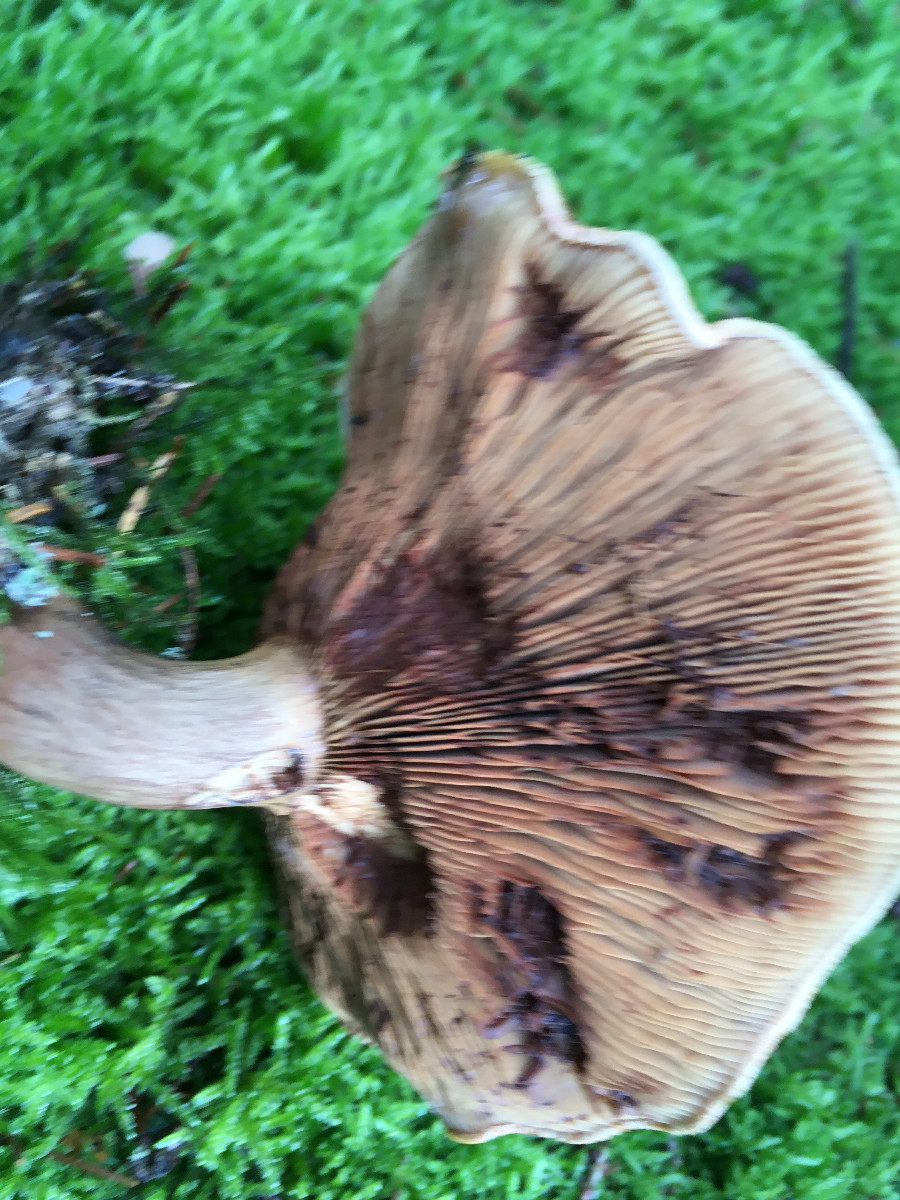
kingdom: Fungi
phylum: Basidiomycota
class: Agaricomycetes
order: Boletales
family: Paxillaceae
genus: Paxillus
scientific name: Paxillus involutus
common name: almindelig netbladhat
